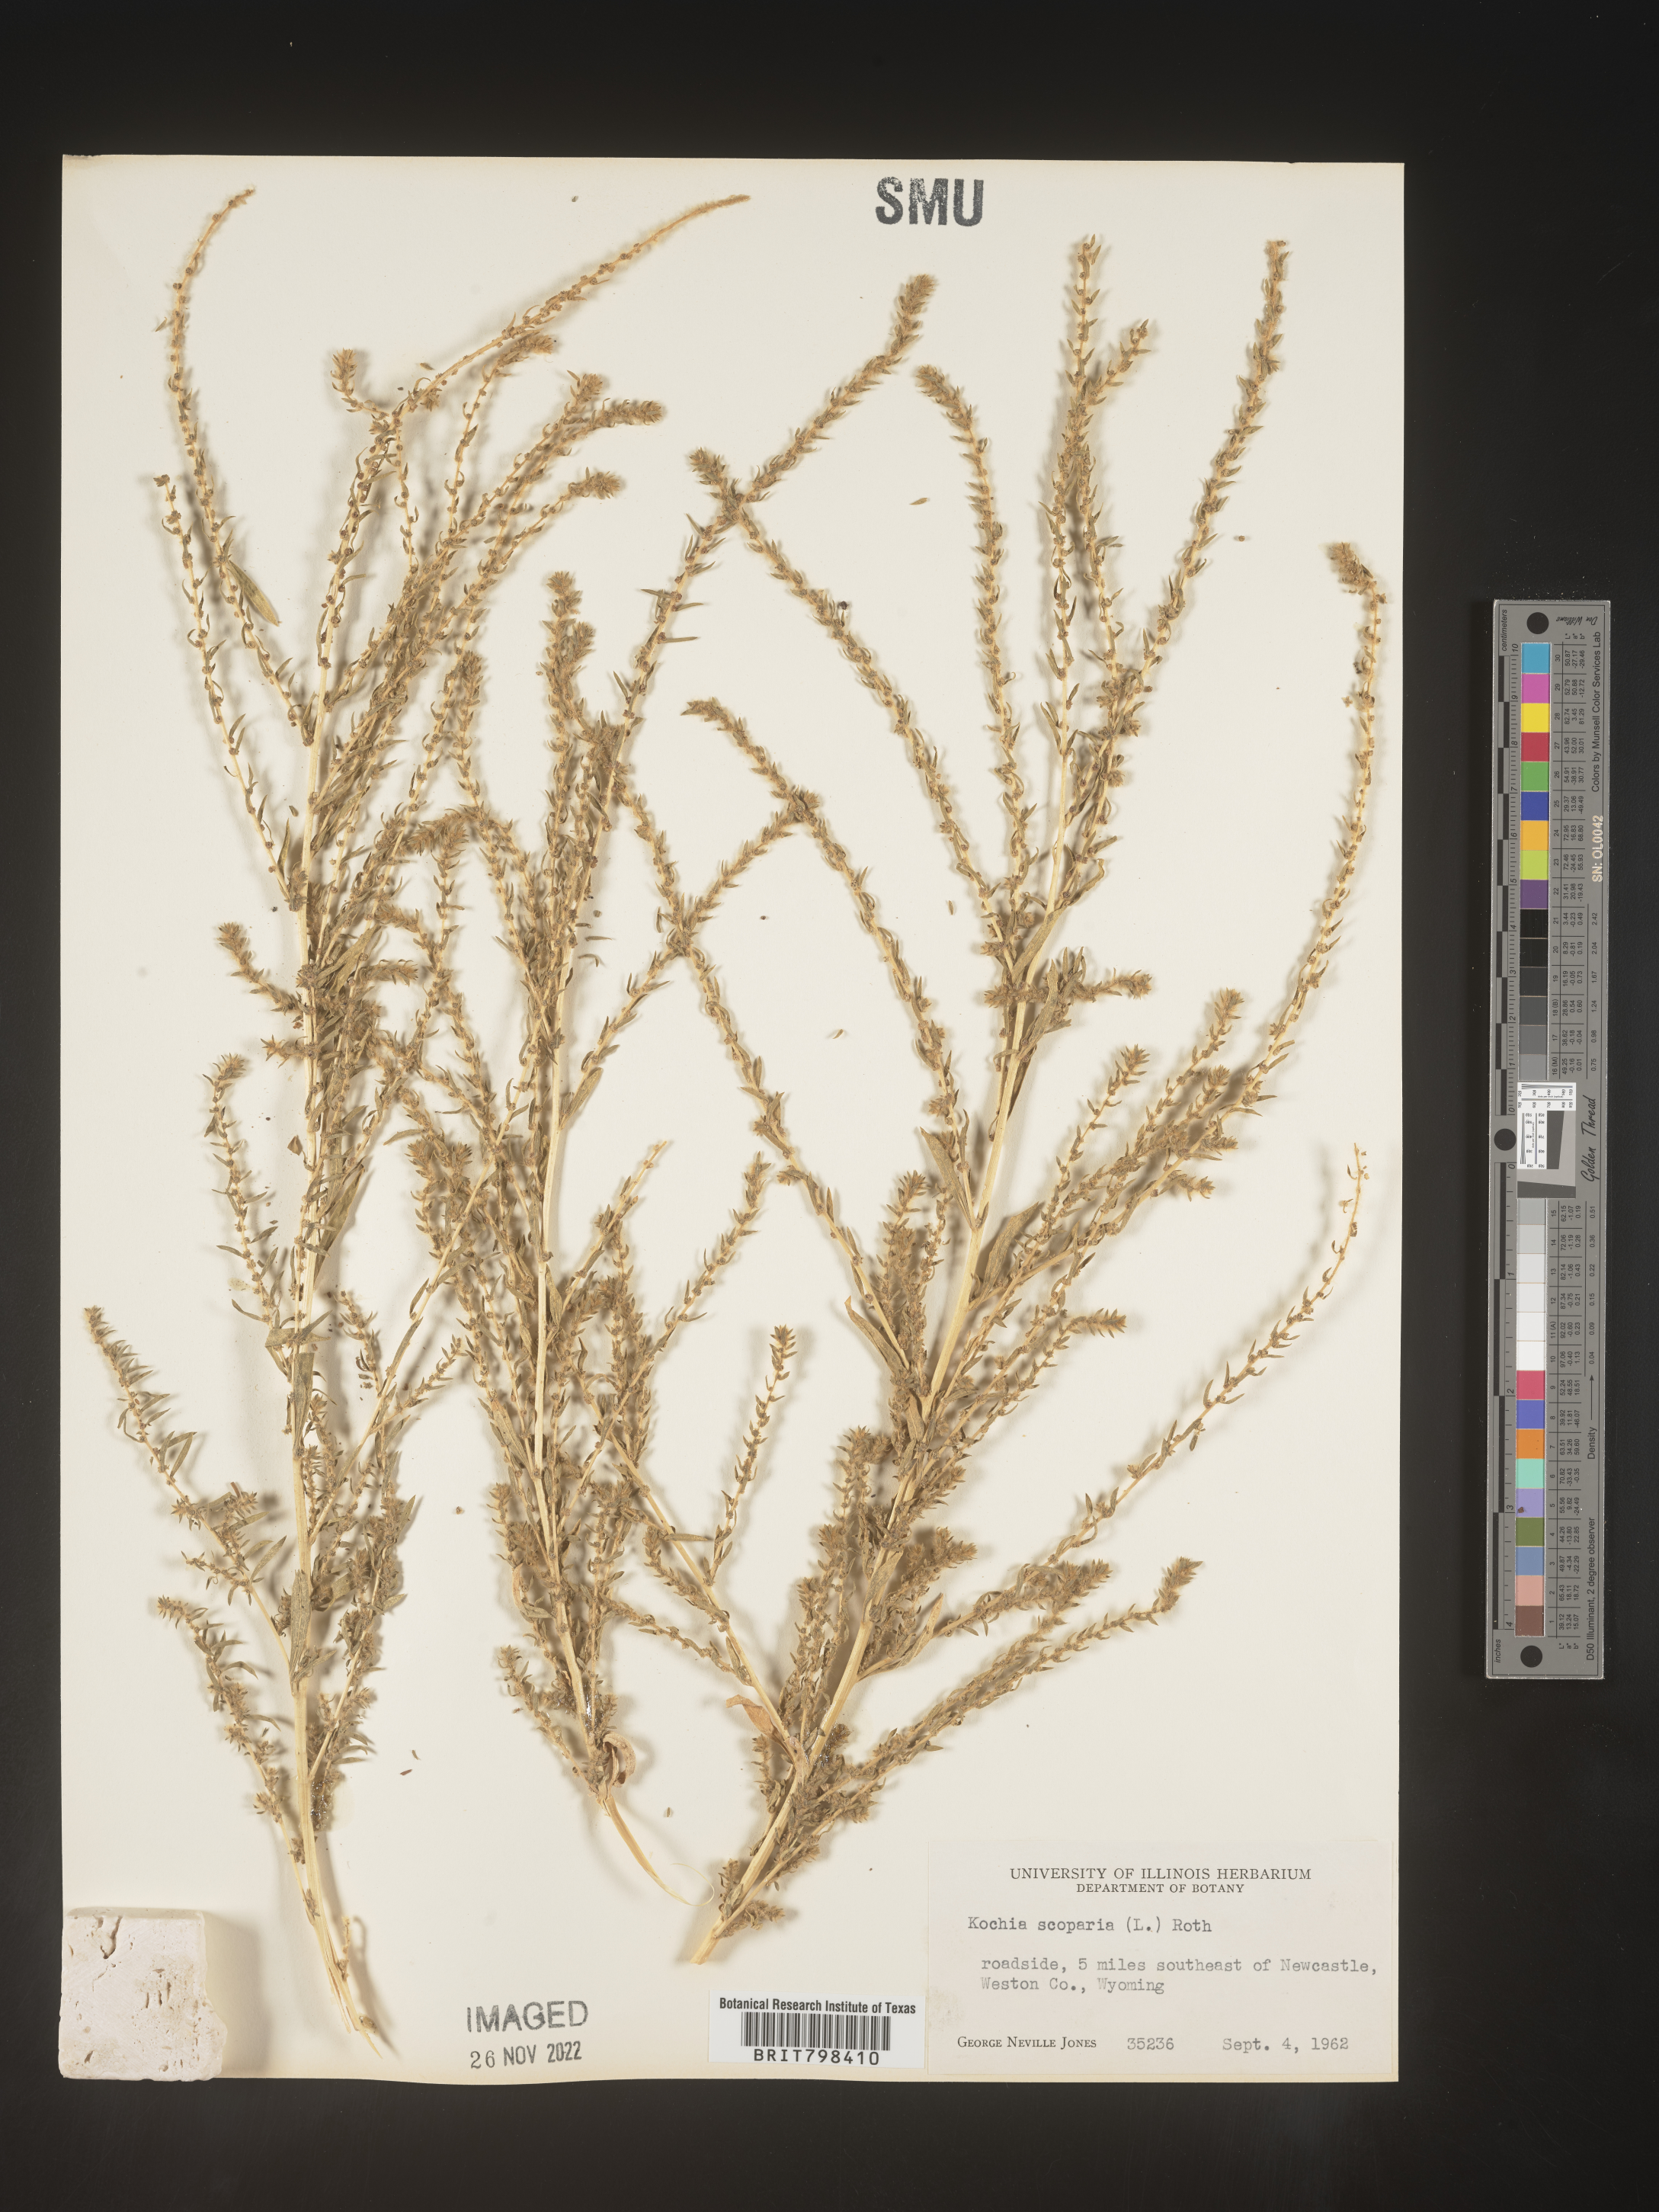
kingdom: Plantae
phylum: Tracheophyta
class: Magnoliopsida
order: Caryophyllales
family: Amaranthaceae
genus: Bassia
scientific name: Bassia scoparia
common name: Belvedere
